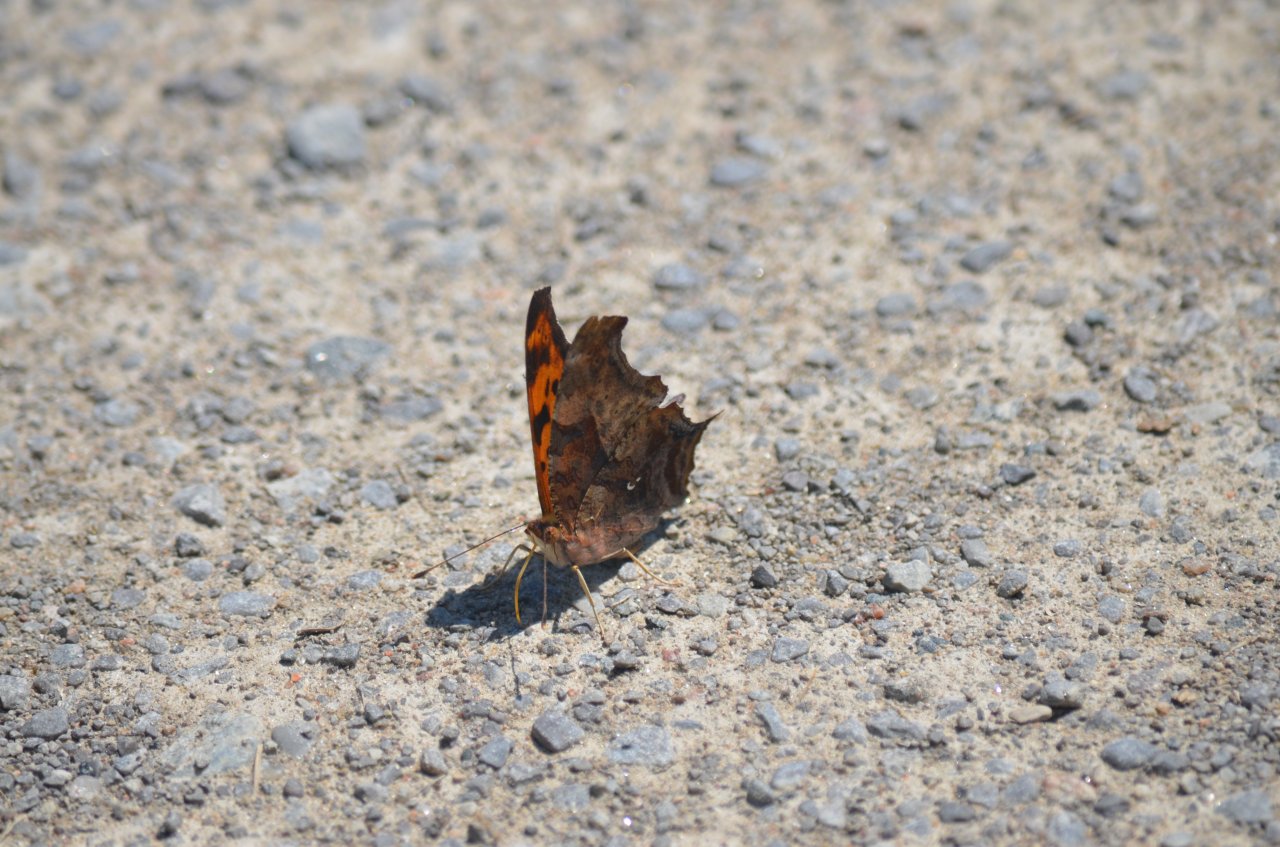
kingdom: Animalia
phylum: Arthropoda
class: Insecta
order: Lepidoptera
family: Nymphalidae
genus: Polygonia
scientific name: Polygonia interrogationis
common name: Question Mark
